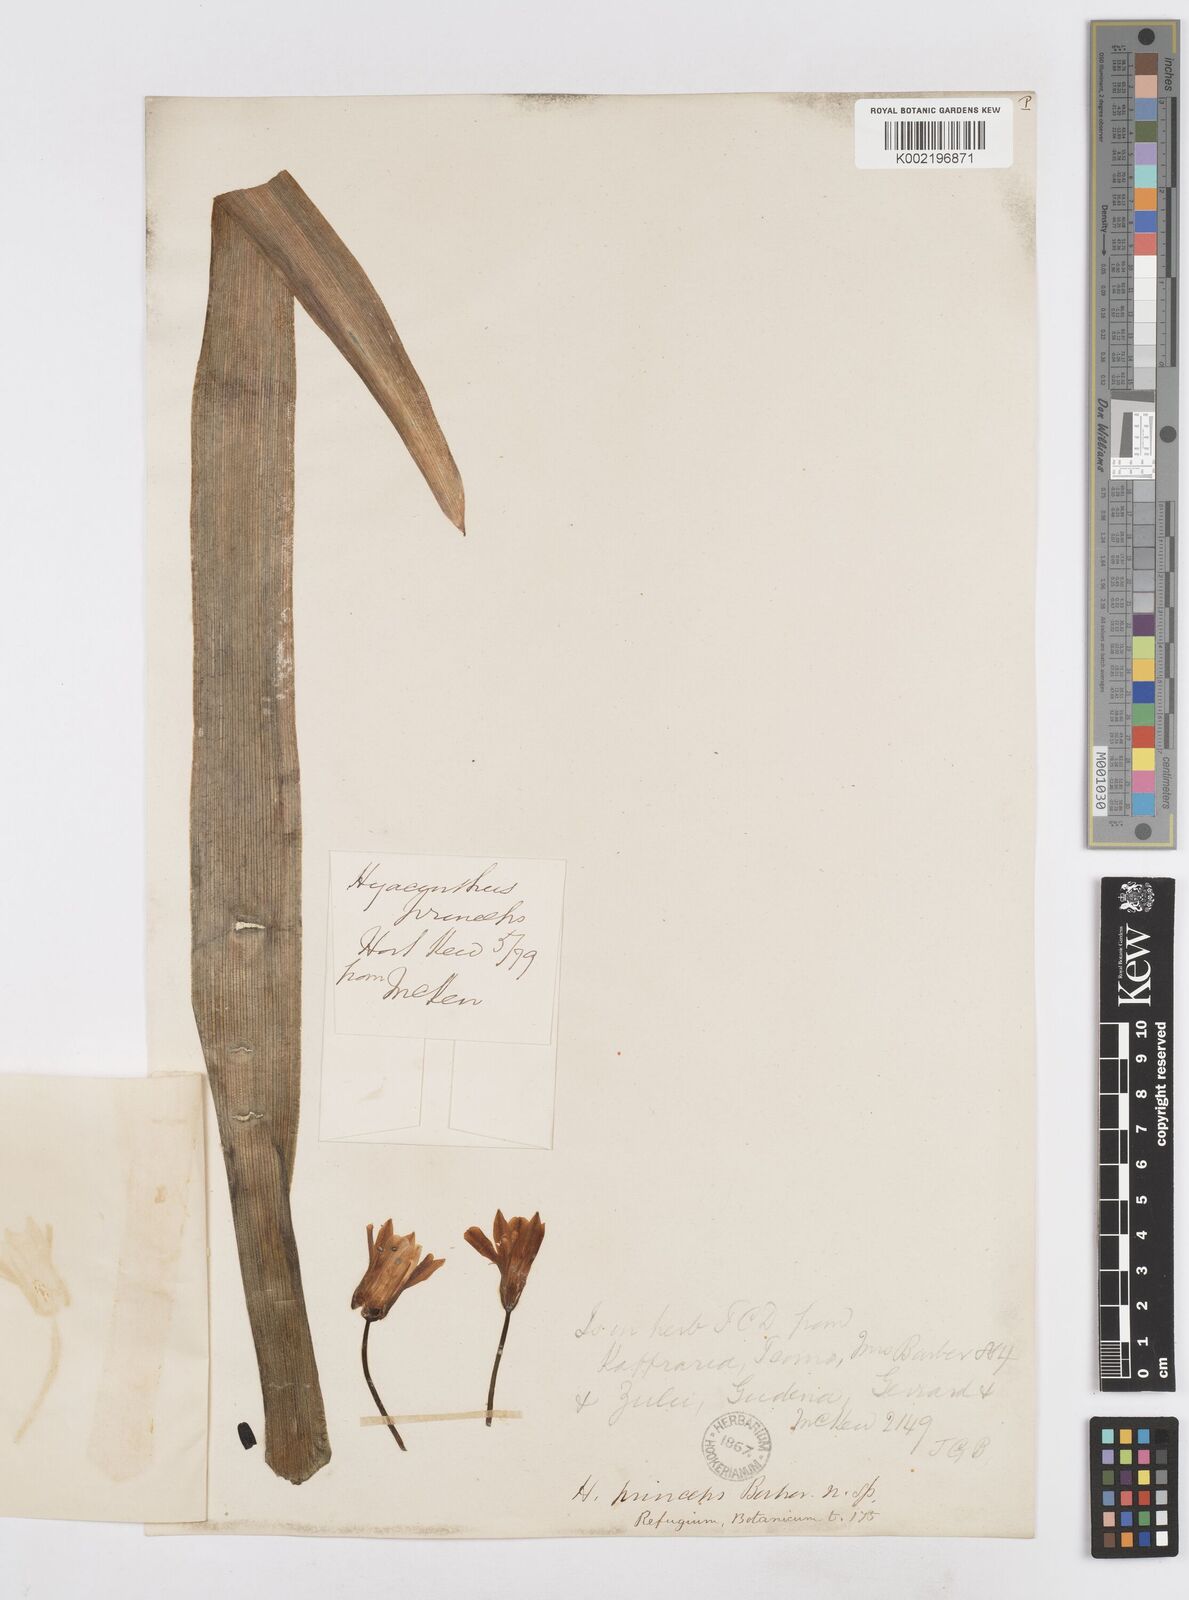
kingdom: Plantae
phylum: Tracheophyta
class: Liliopsida
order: Asparagales
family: Asparagaceae
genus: Ornithogalum
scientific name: Ornithogalum princeps
